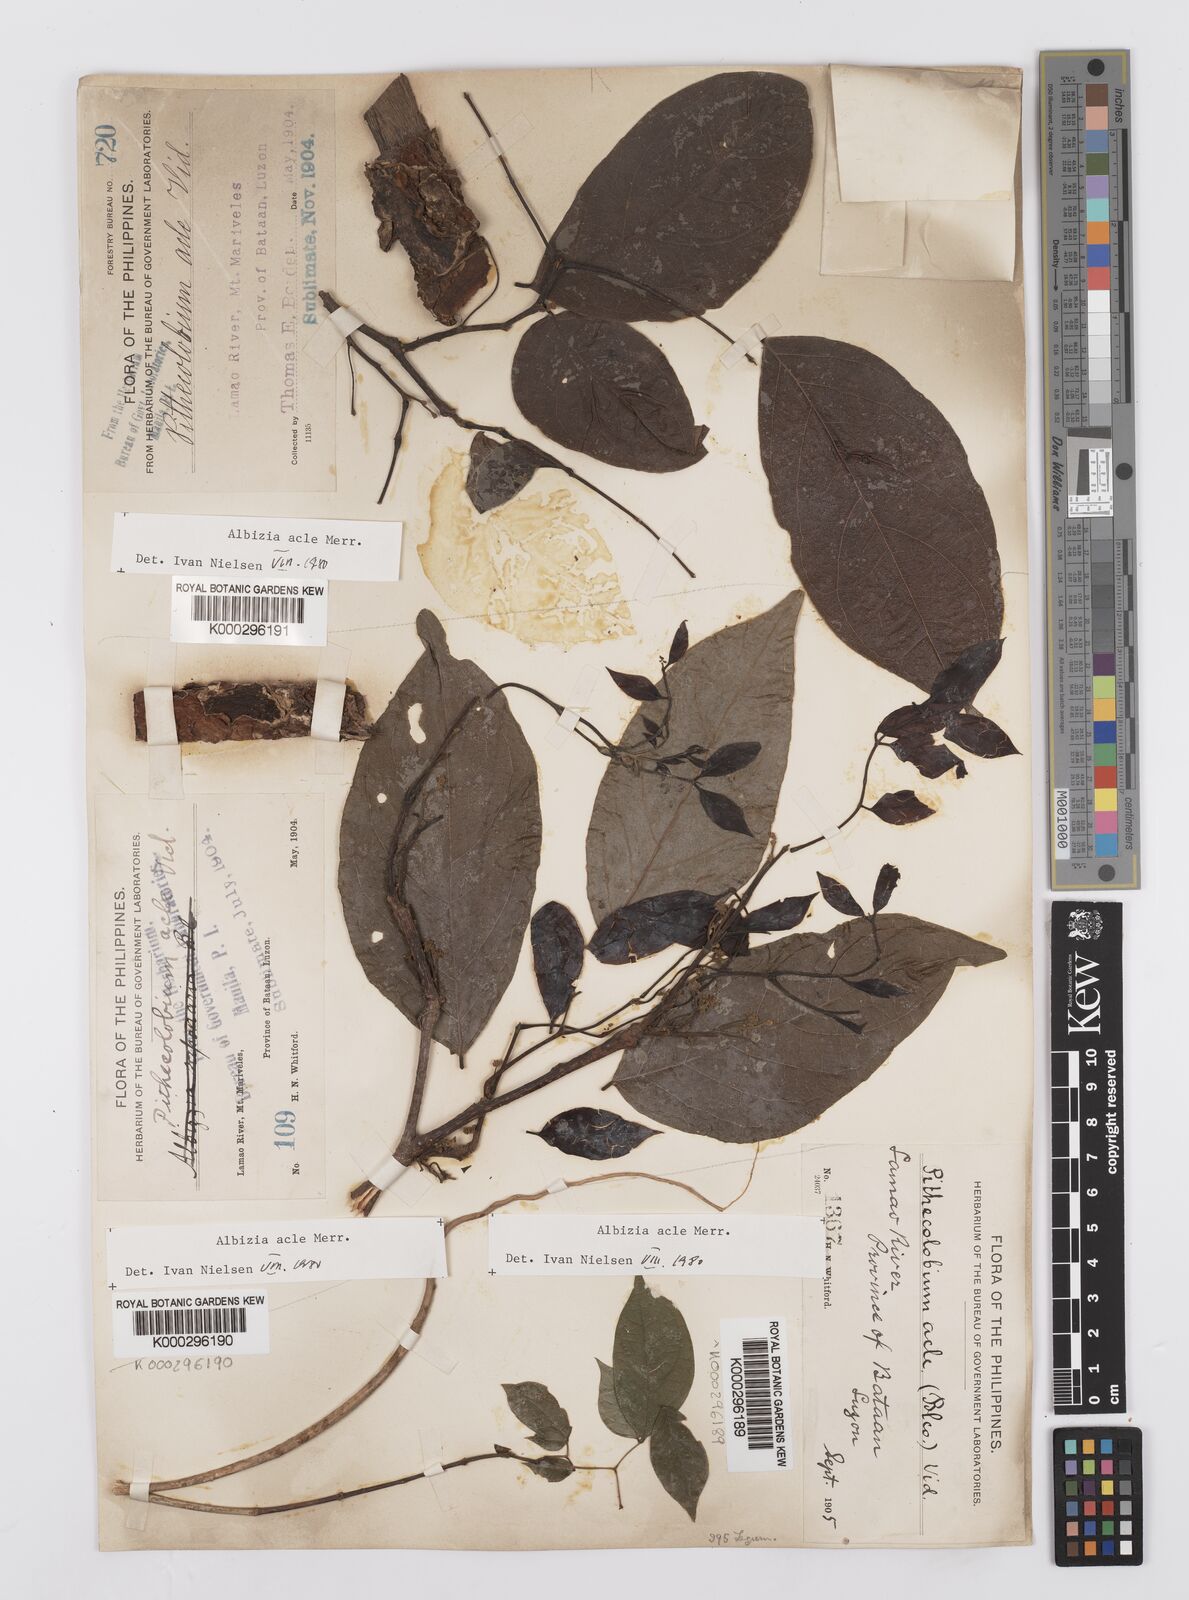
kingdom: Plantae
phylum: Tracheophyta
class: Magnoliopsida
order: Fabales
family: Fabaceae
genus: Albizia
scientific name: Albizia acle
